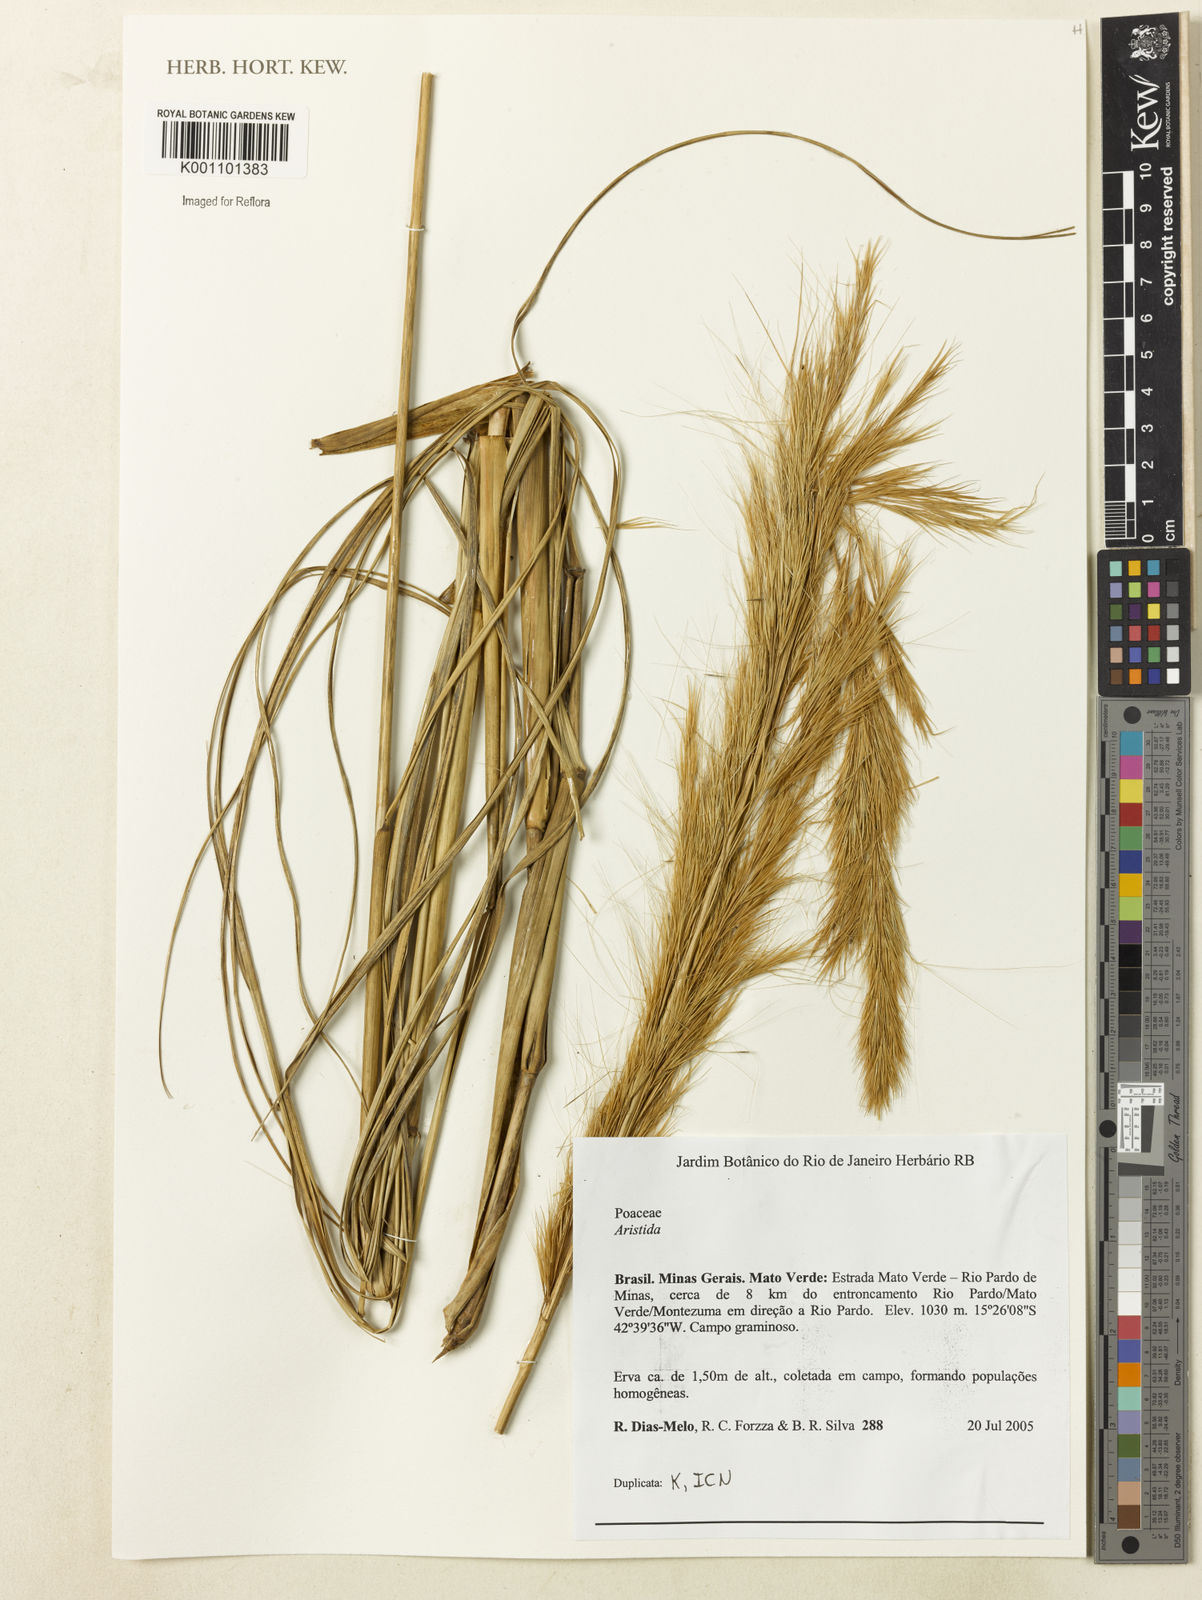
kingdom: Plantae
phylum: Tracheophyta
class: Liliopsida
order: Poales
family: Poaceae
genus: Aristida
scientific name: Aristida
